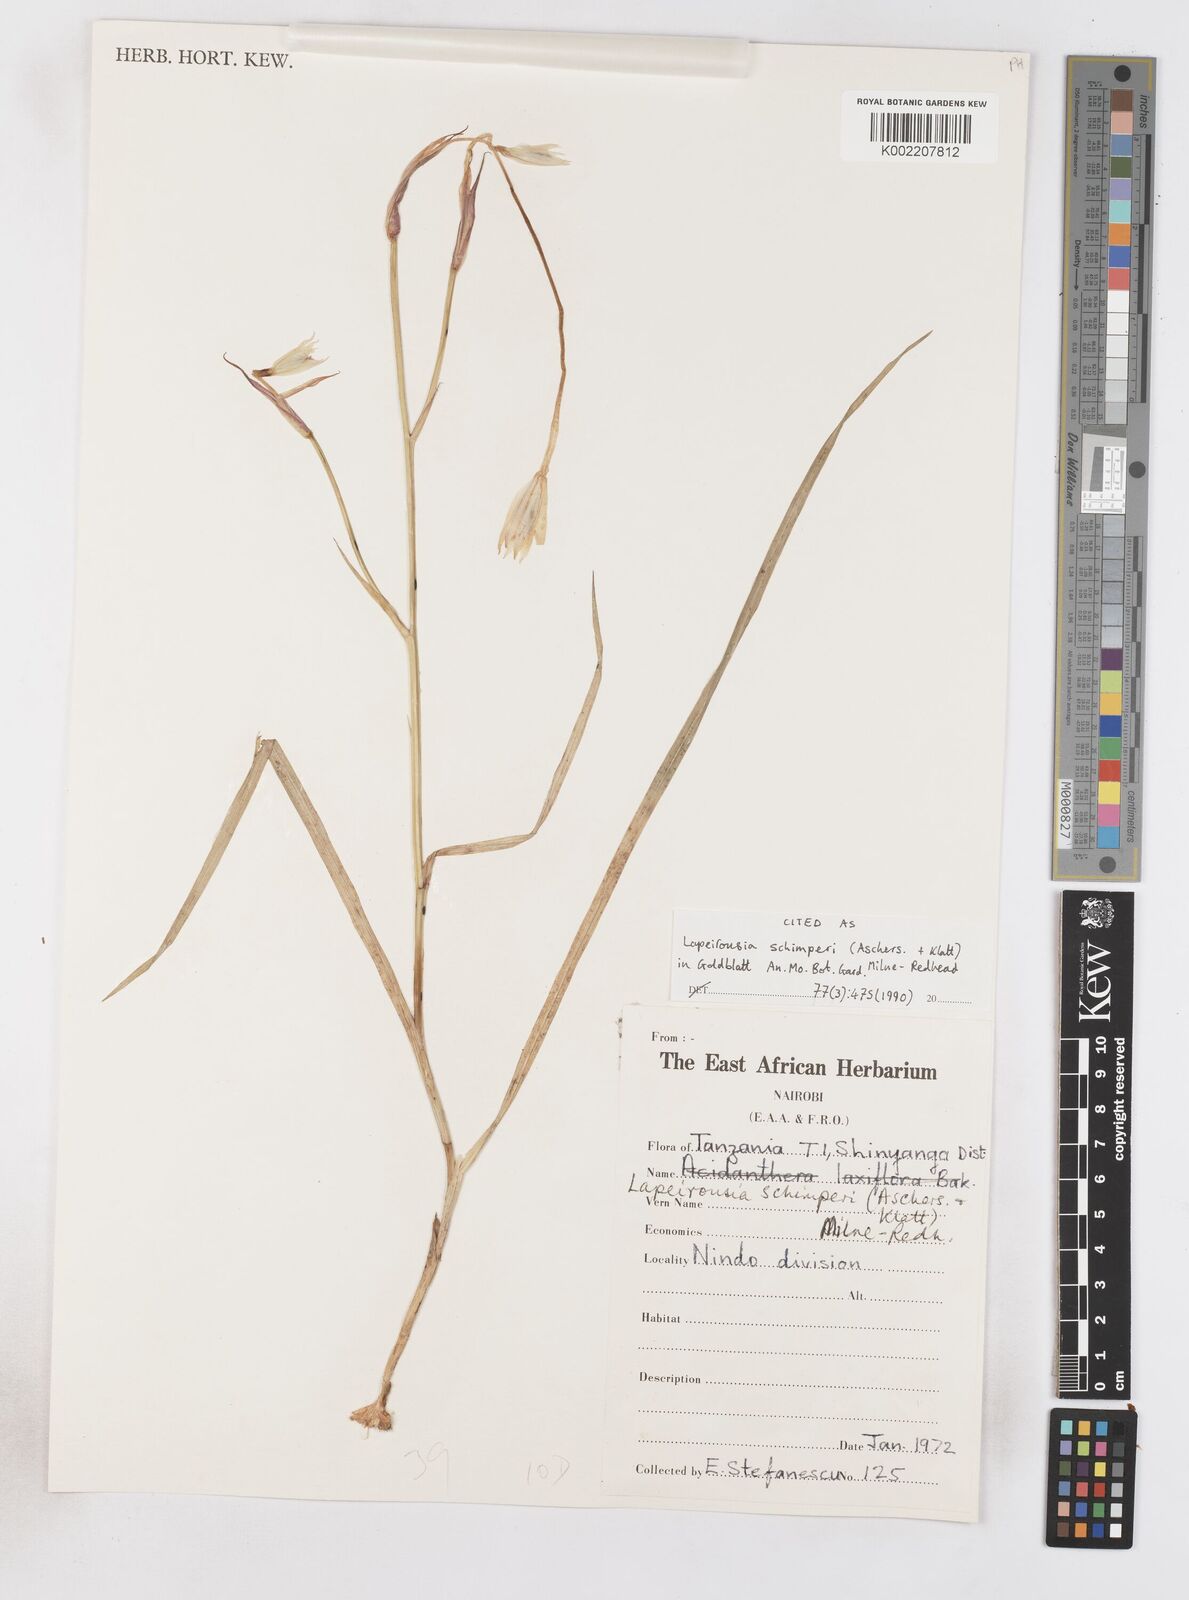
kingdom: Plantae
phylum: Tracheophyta
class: Liliopsida
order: Asparagales
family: Iridaceae
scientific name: Iridaceae
